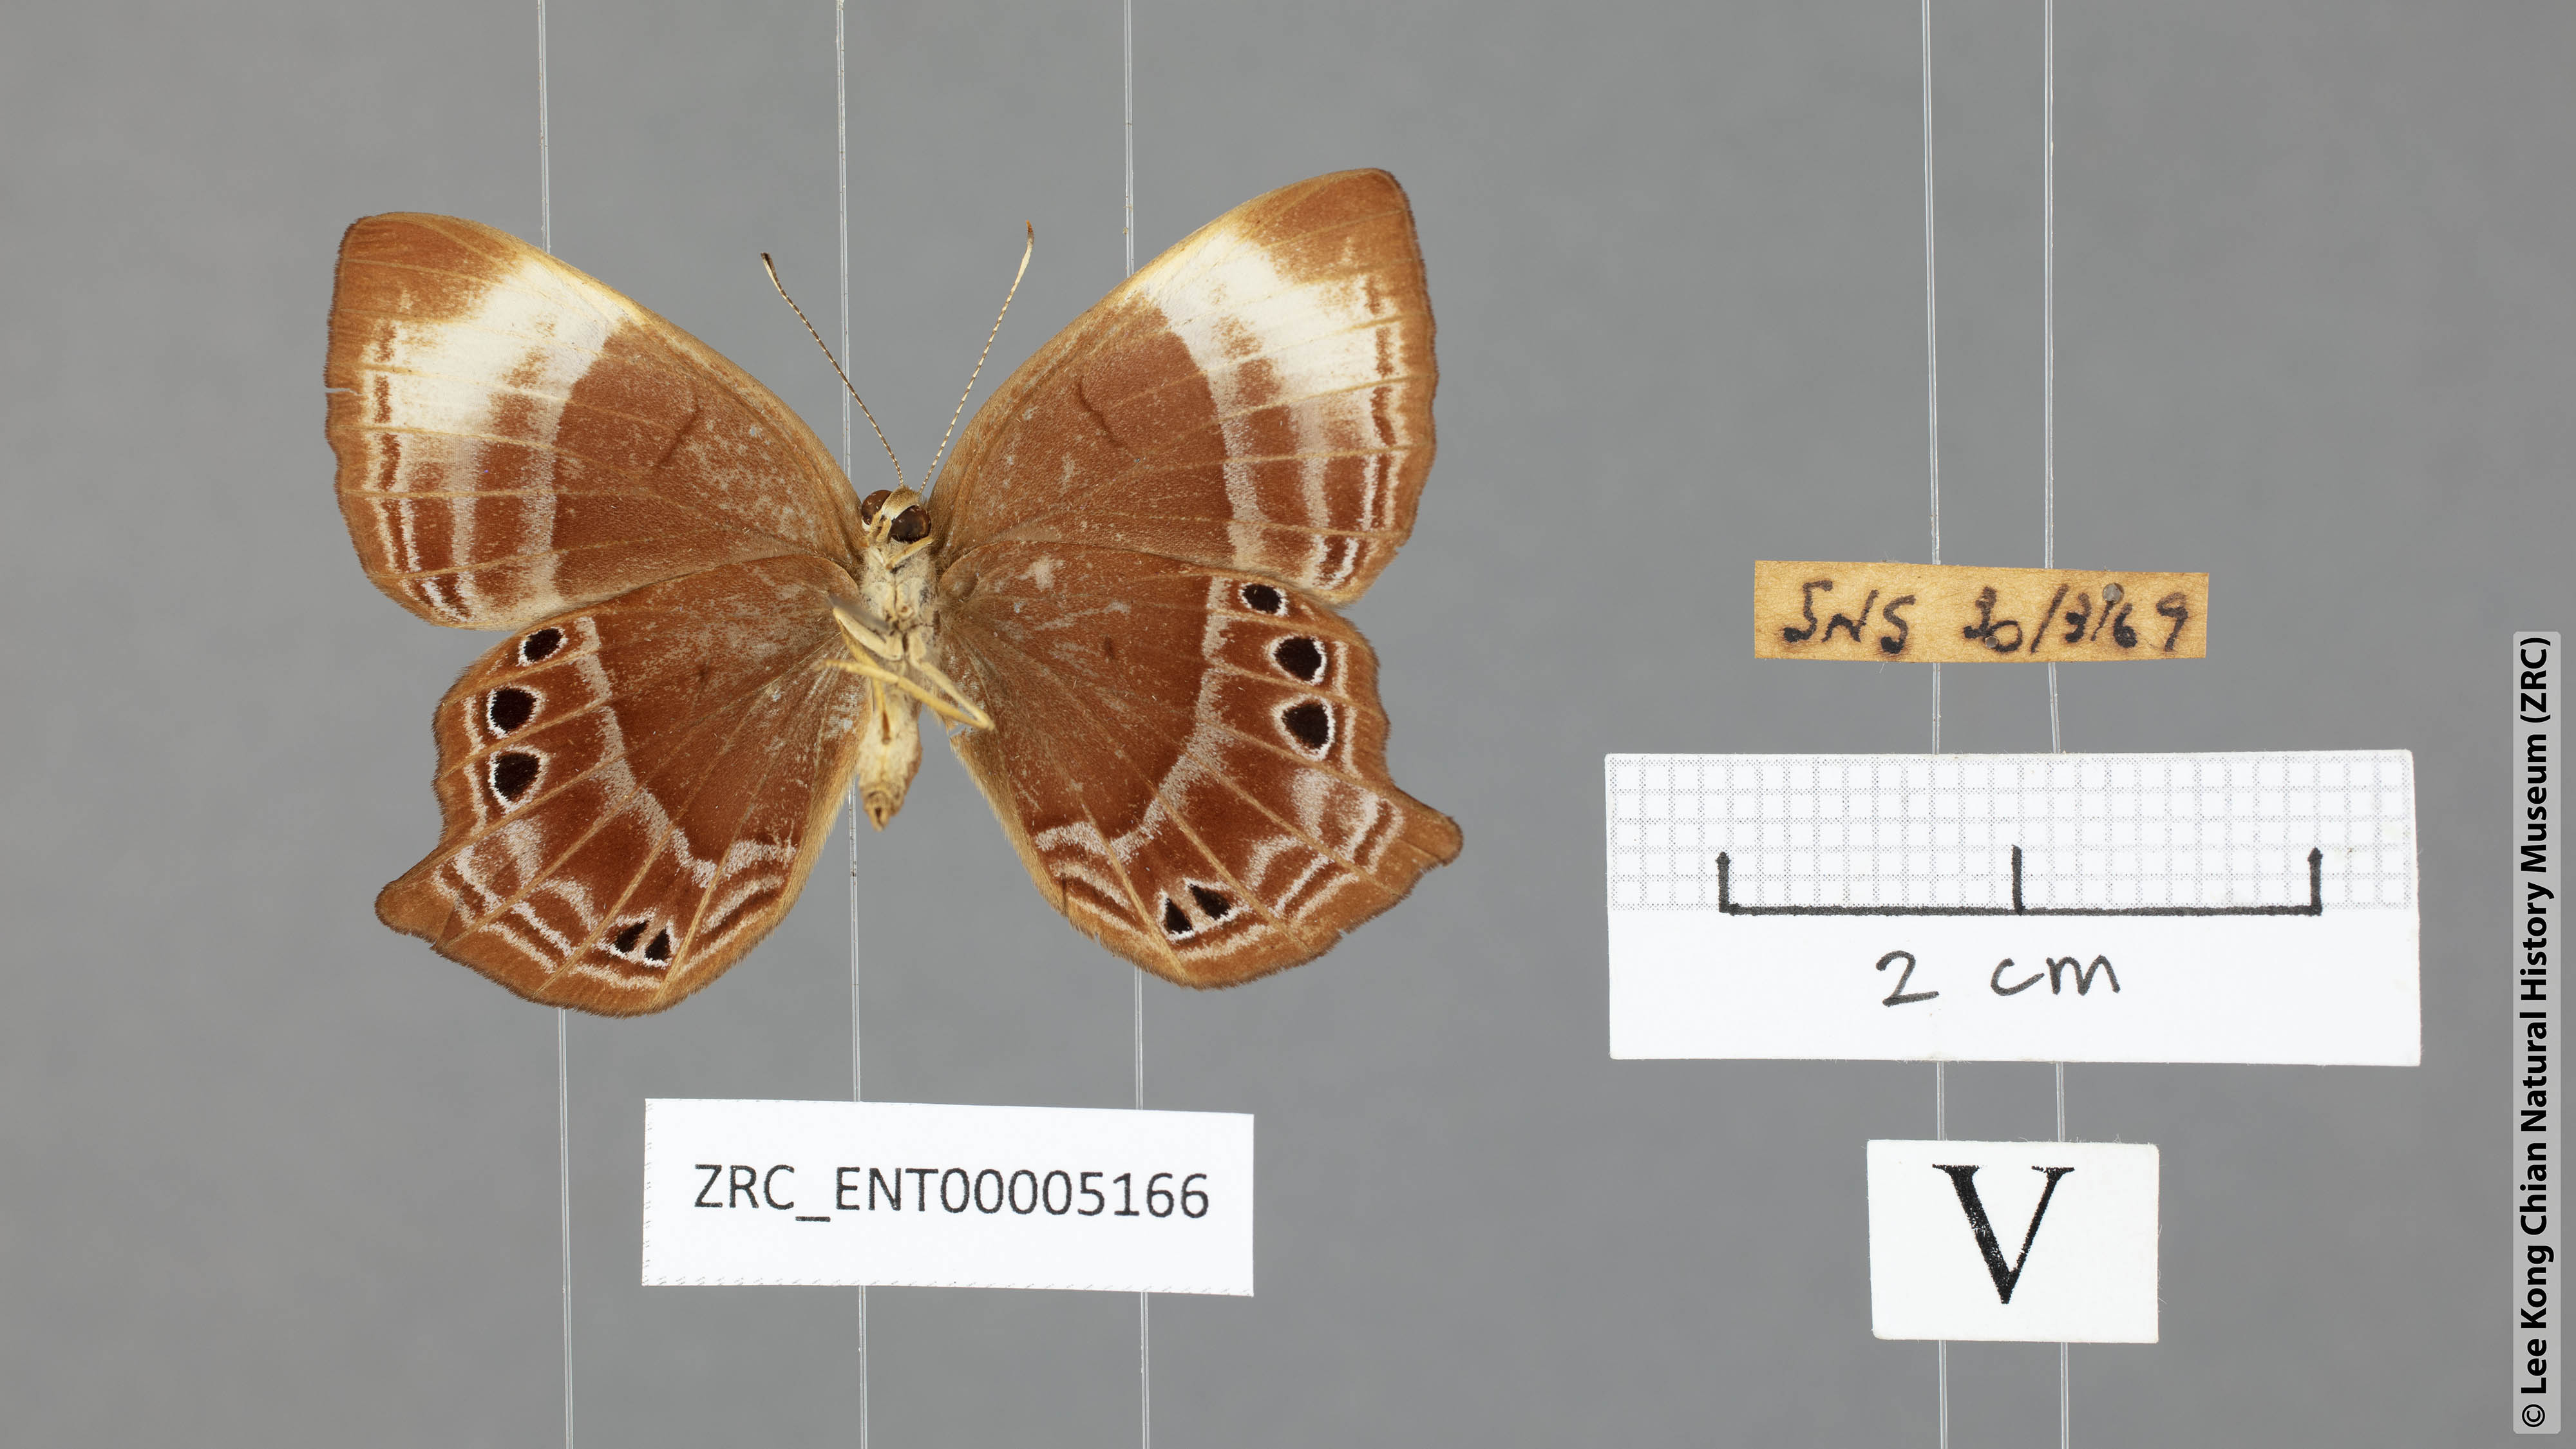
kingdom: Animalia
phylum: Arthropoda
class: Insecta
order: Lepidoptera
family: Lycaenidae
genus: Abisara
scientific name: Abisara kausambi
